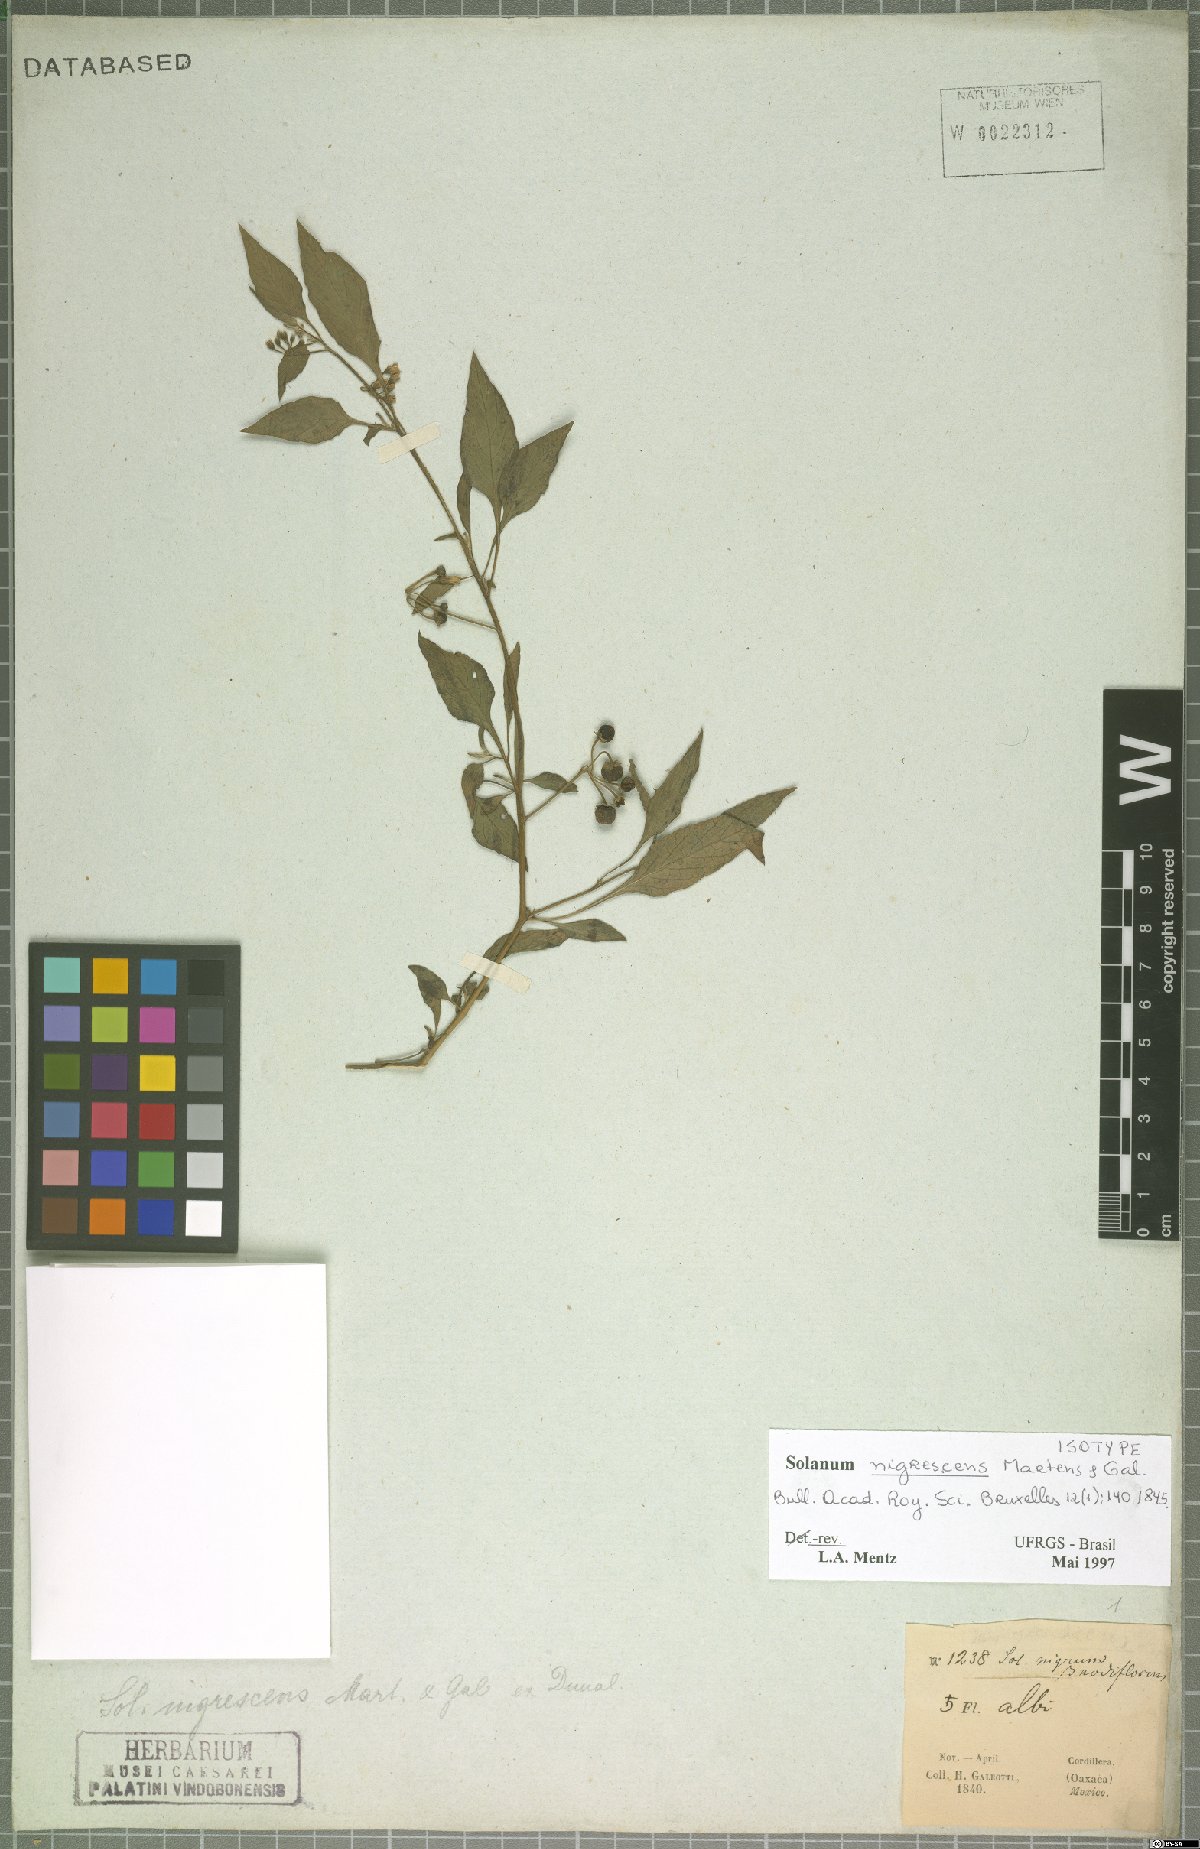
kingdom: Plantae
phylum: Tracheophyta
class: Magnoliopsida
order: Solanales
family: Solanaceae
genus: Solanum
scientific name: Solanum nigrescens
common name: Divine nightshade
